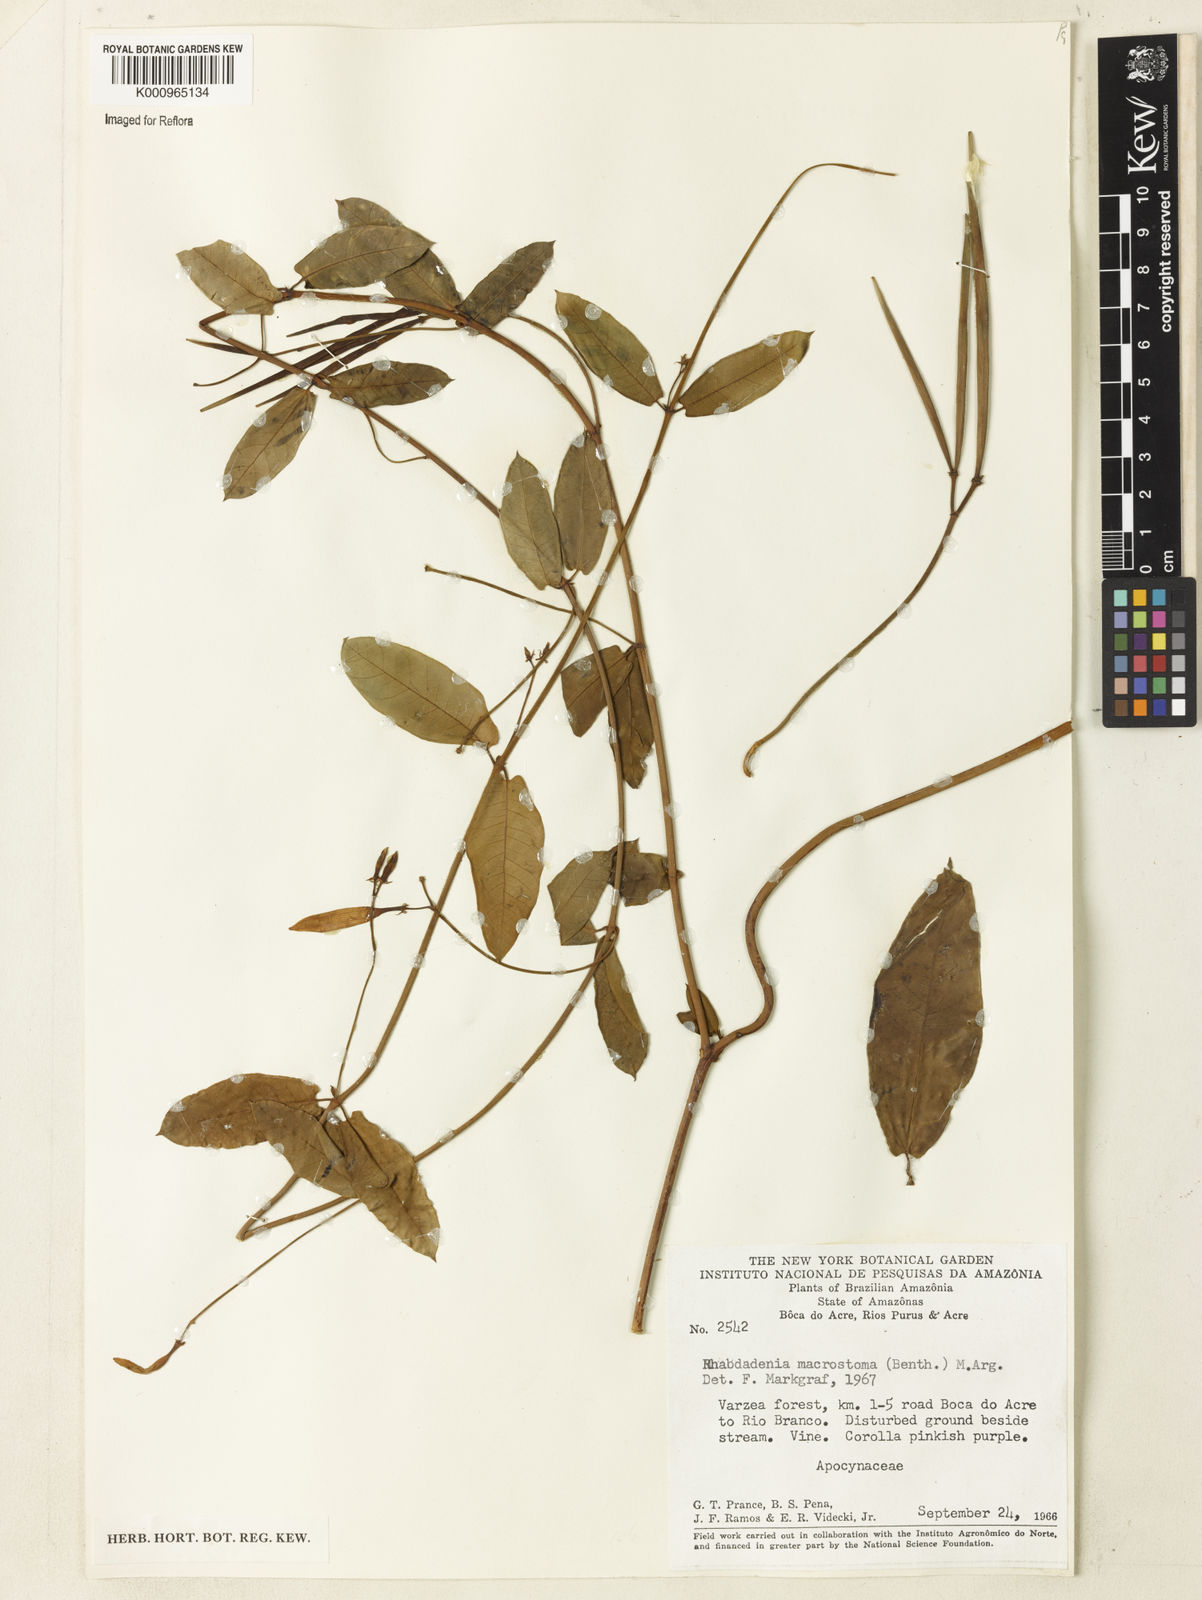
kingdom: Plantae
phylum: Tracheophyta
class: Magnoliopsida
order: Gentianales
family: Apocynaceae
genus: Rhabdadenia
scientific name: Rhabdadenia madida
